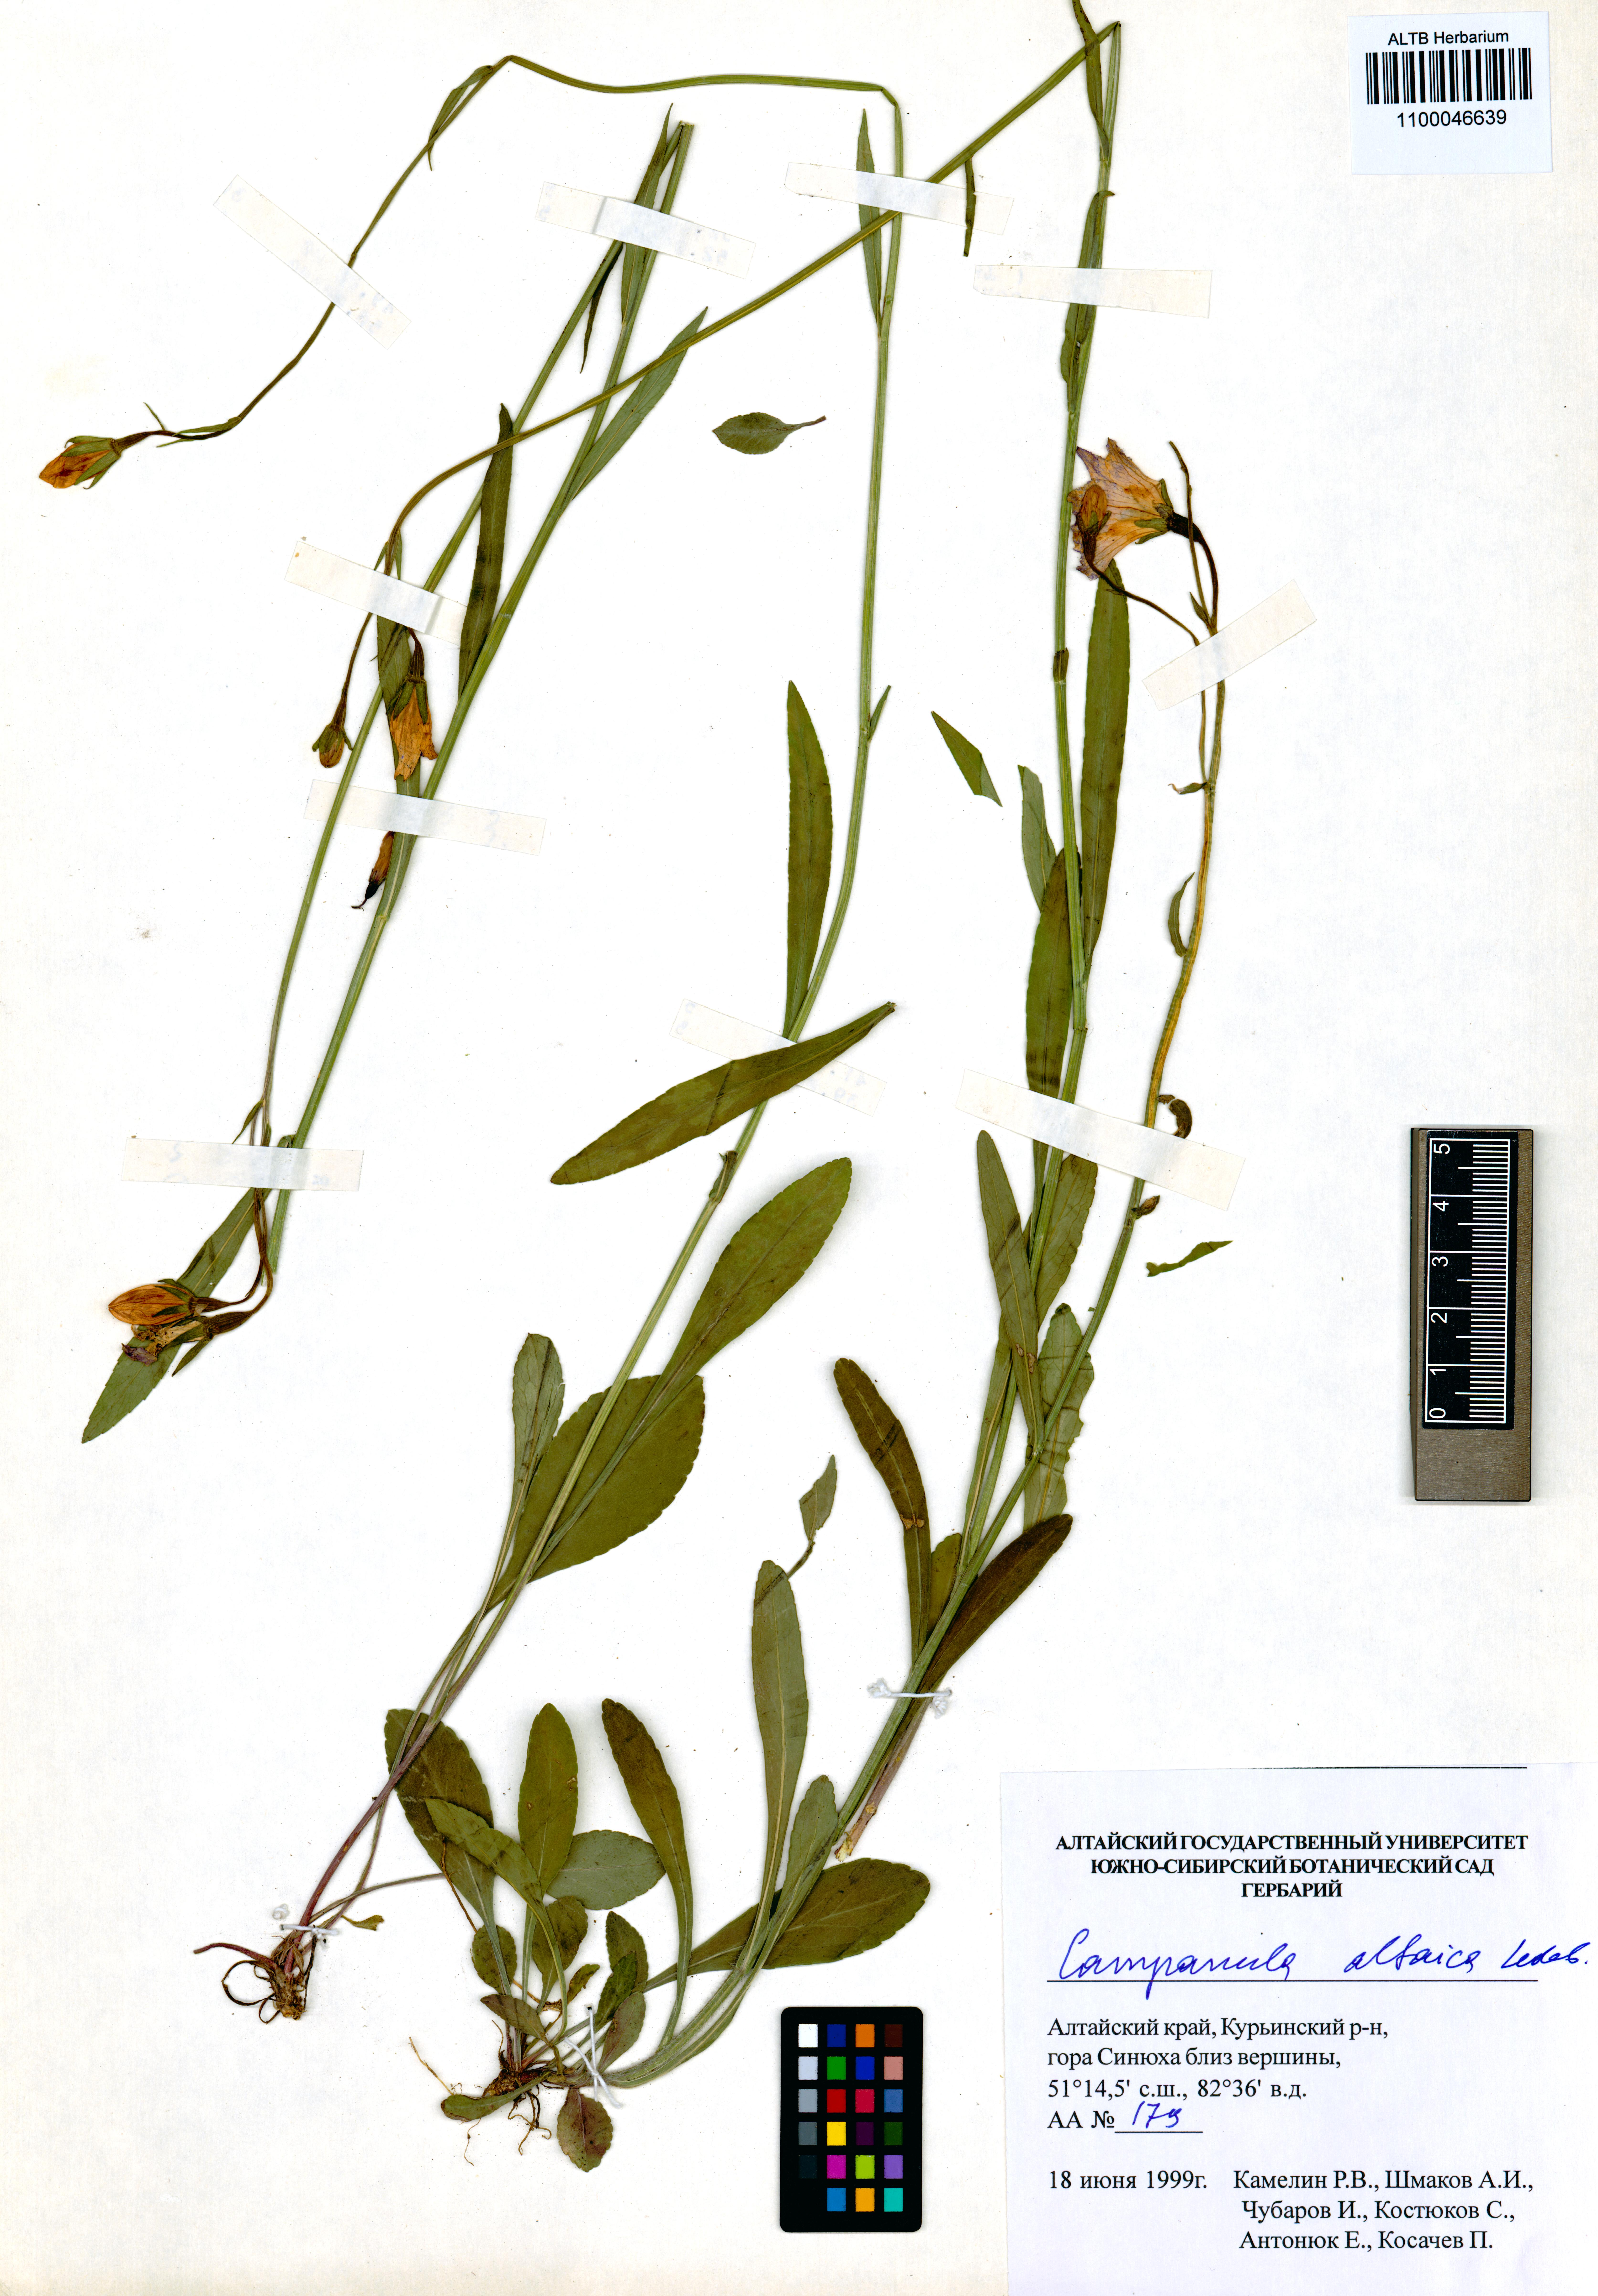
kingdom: Plantae
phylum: Tracheophyta
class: Magnoliopsida
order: Asterales
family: Campanulaceae
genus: Campanula
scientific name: Campanula stevenii
